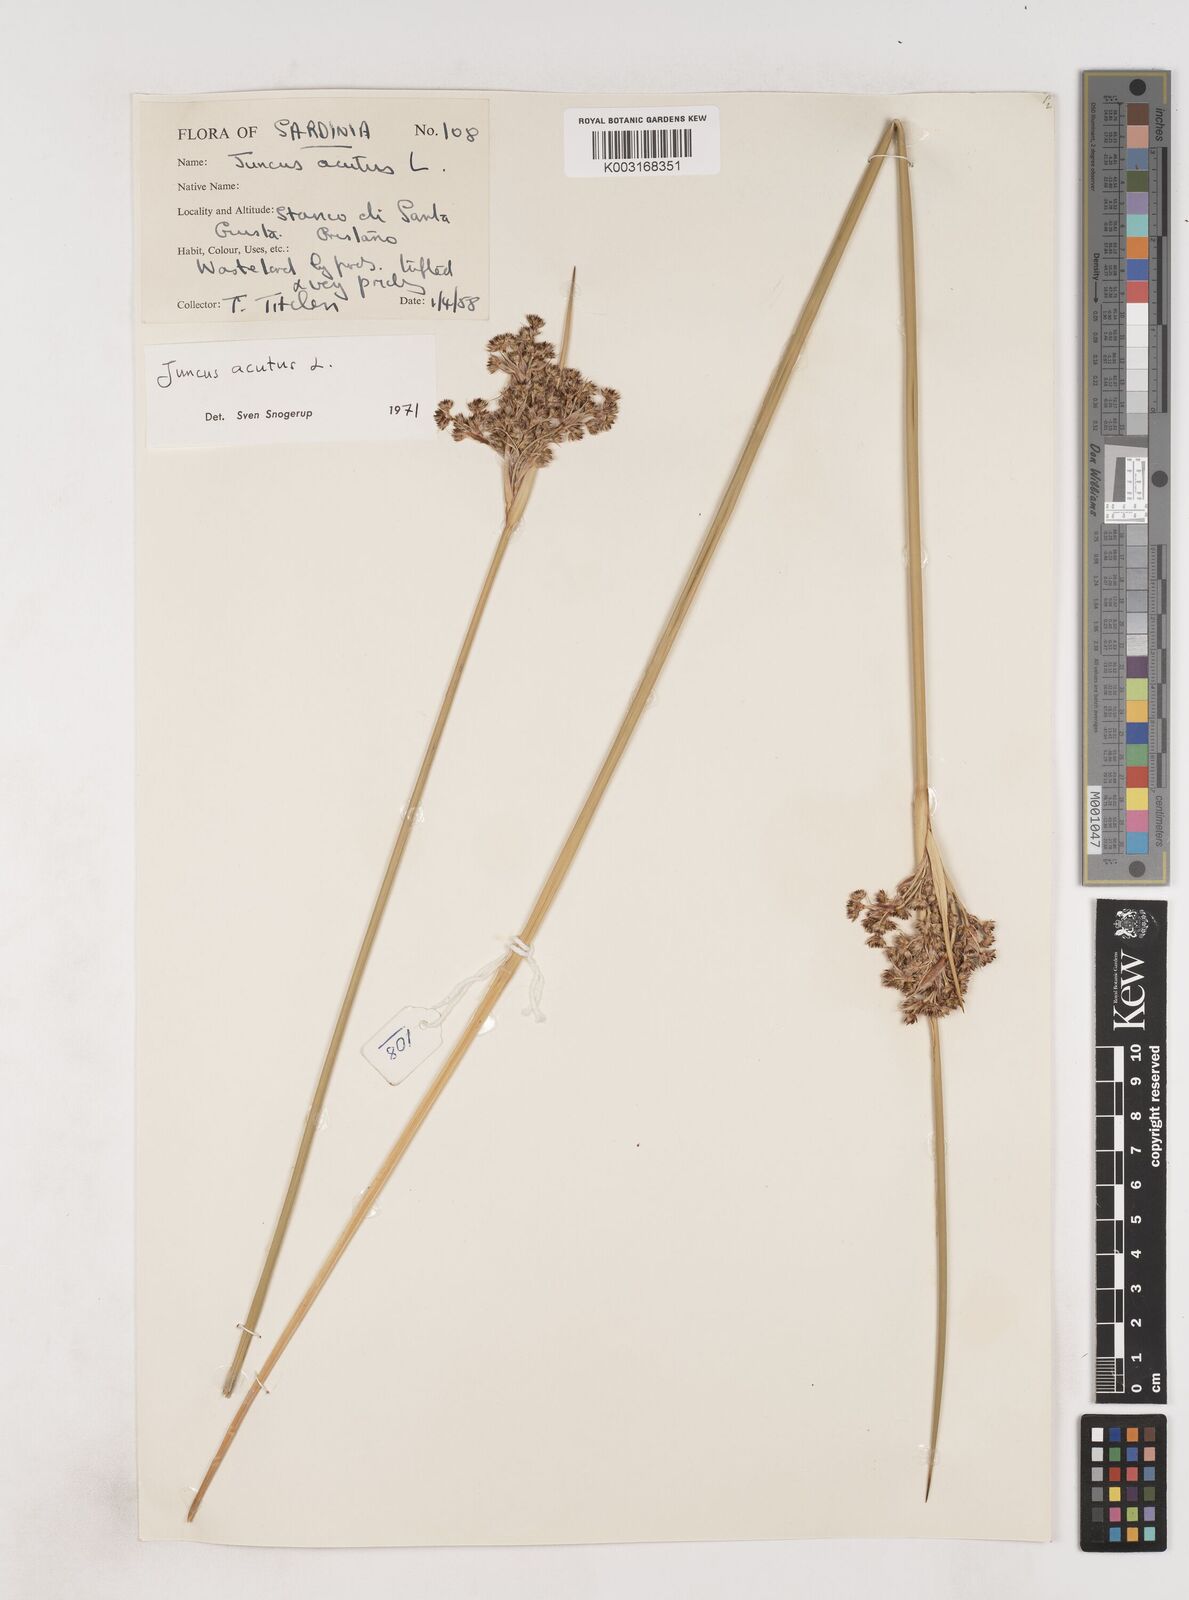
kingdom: Plantae
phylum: Tracheophyta
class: Liliopsida
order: Poales
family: Juncaceae
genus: Juncus
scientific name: Juncus acutus
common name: Sharp rush
